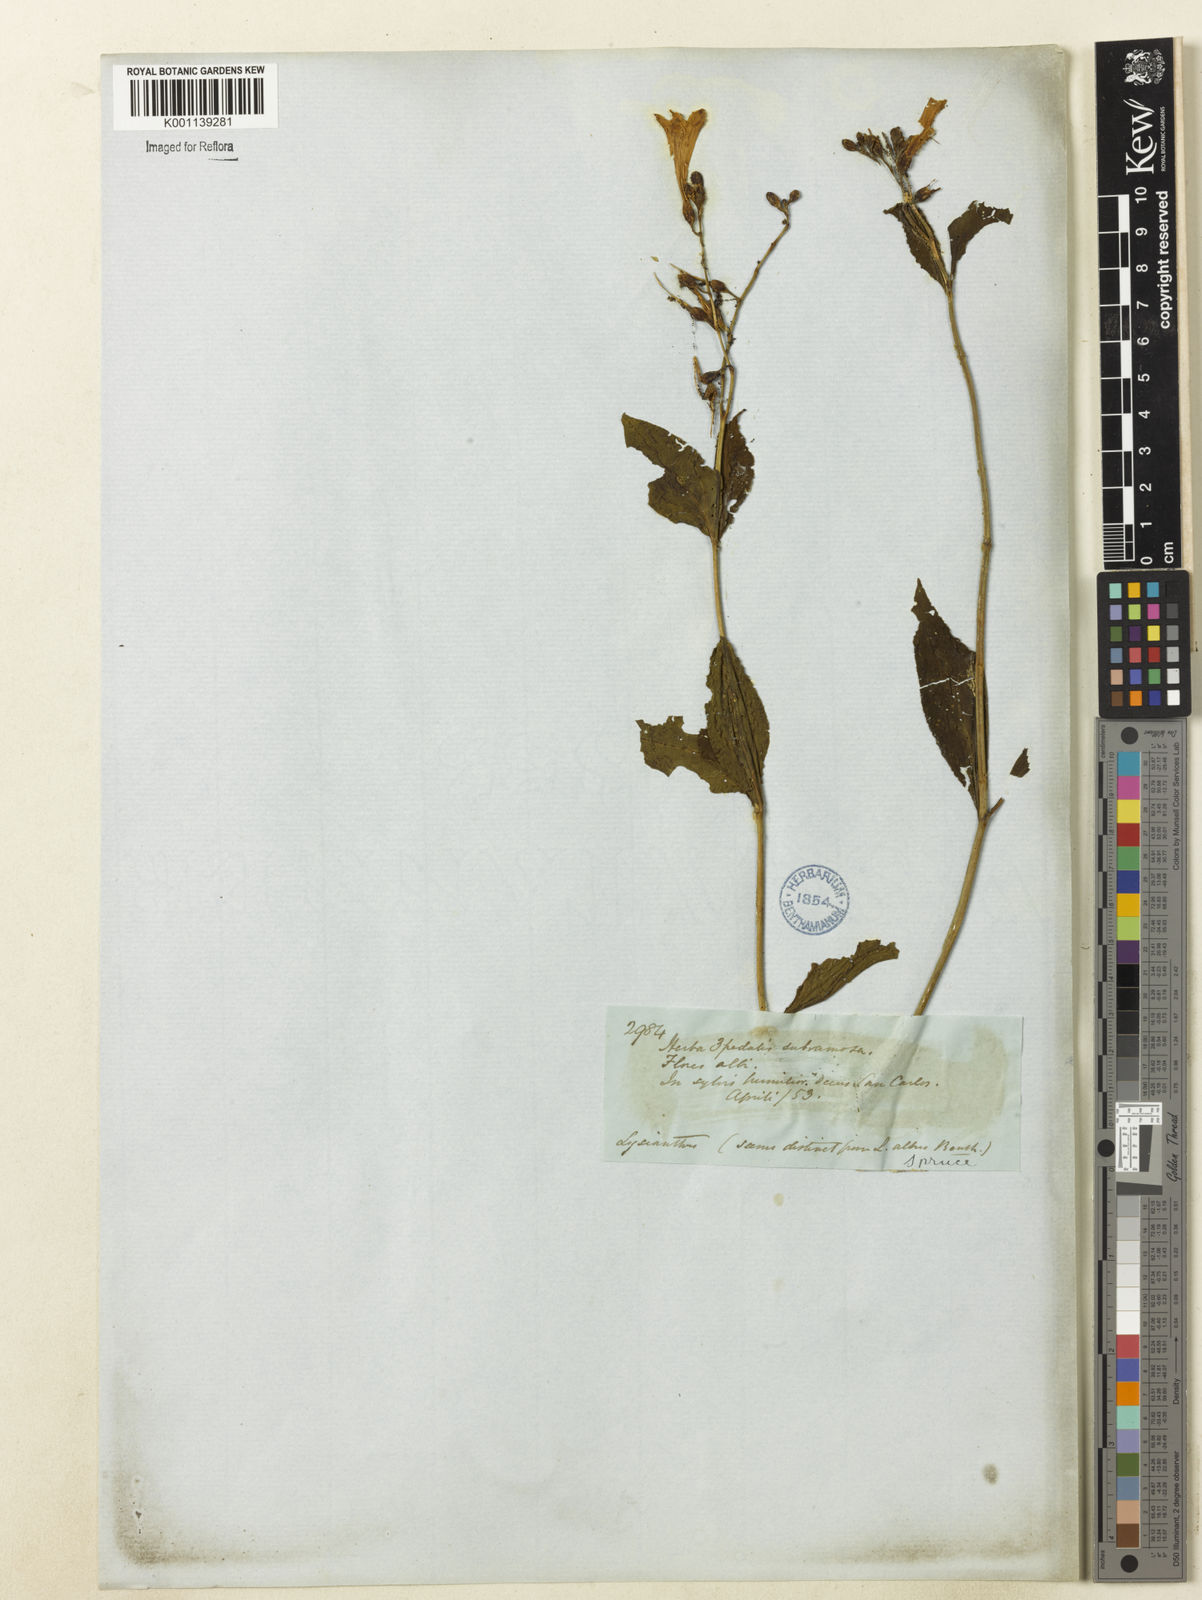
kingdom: Plantae
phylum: Tracheophyta
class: Magnoliopsida
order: Gentianales
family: Gentianaceae
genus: Chelonanthus
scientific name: Chelonanthus albus
